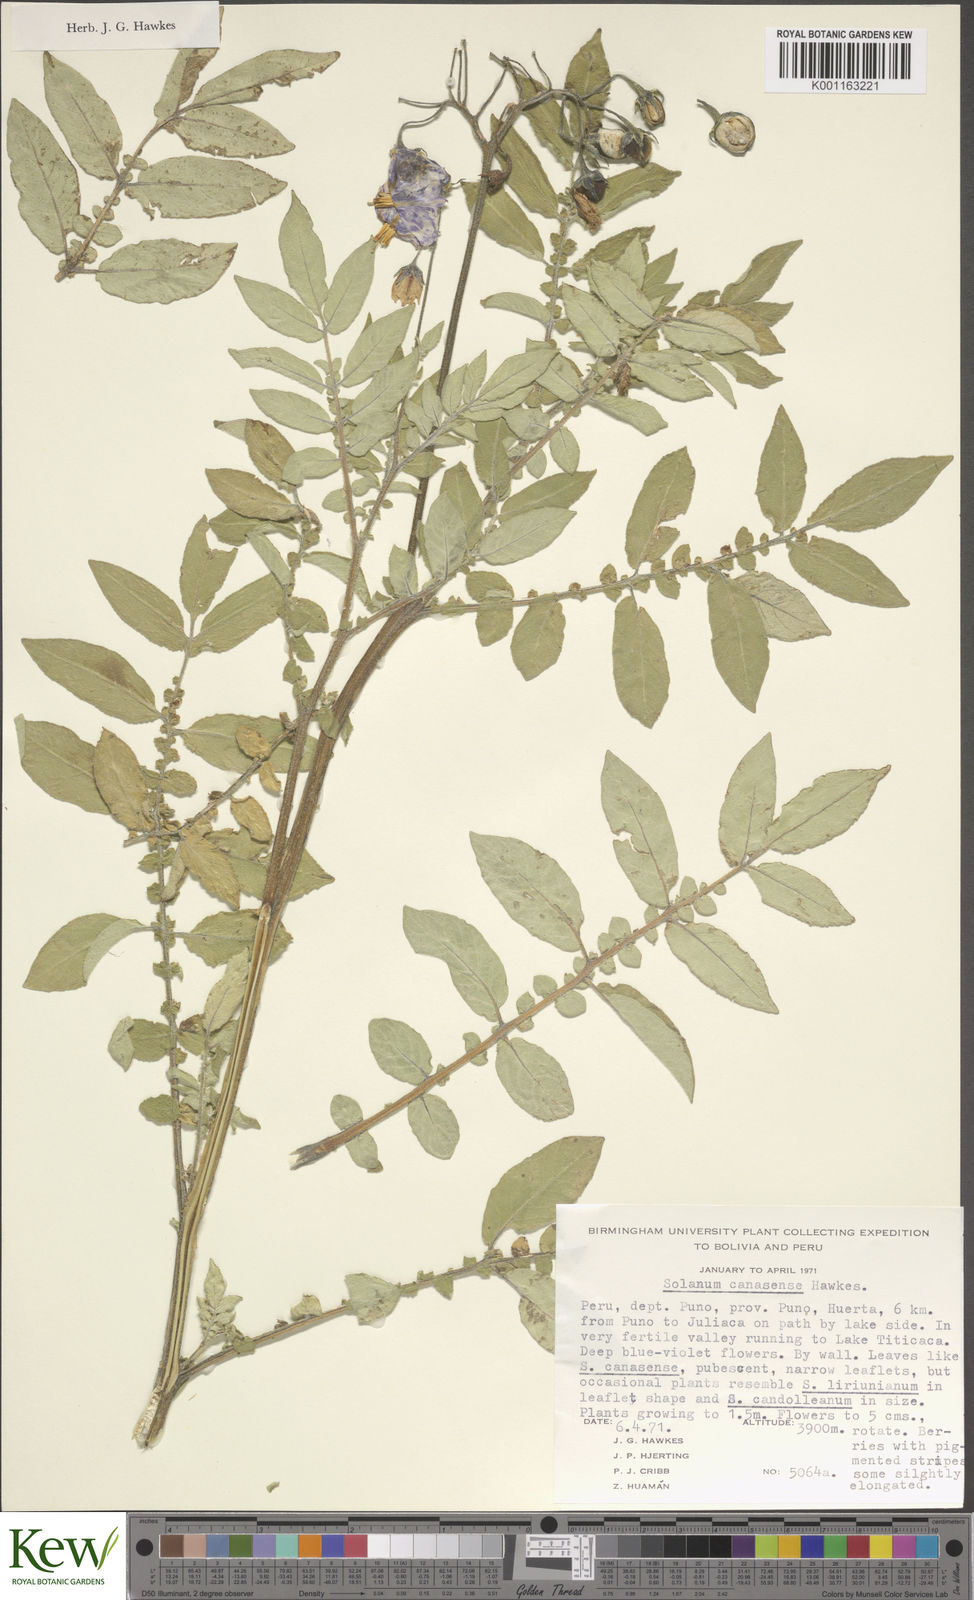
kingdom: Plantae
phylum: Tracheophyta
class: Magnoliopsida
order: Solanales
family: Solanaceae
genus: Solanum
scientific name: Solanum candolleanum
